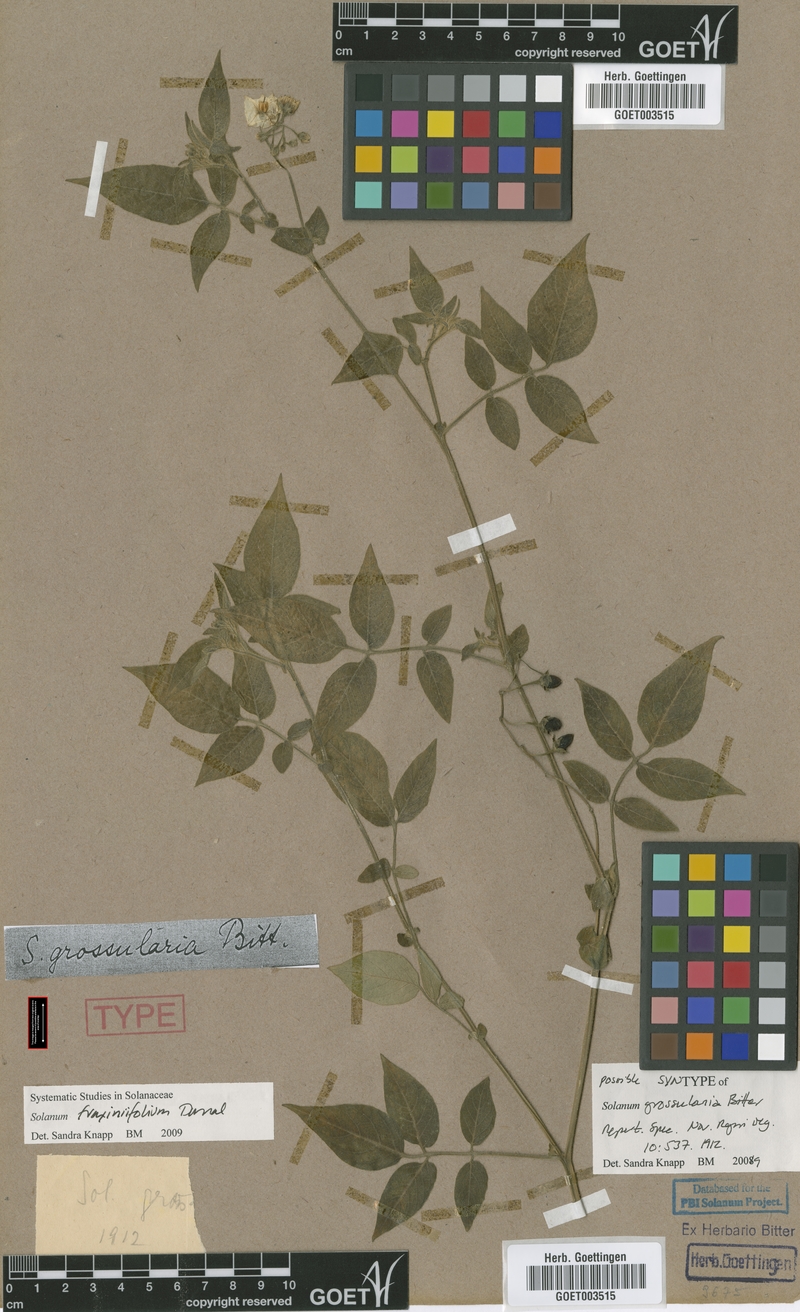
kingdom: Plantae
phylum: Tracheophyta
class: Magnoliopsida
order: Solanales
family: Solanaceae
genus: Solanum
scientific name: Solanum fraxinifolium
